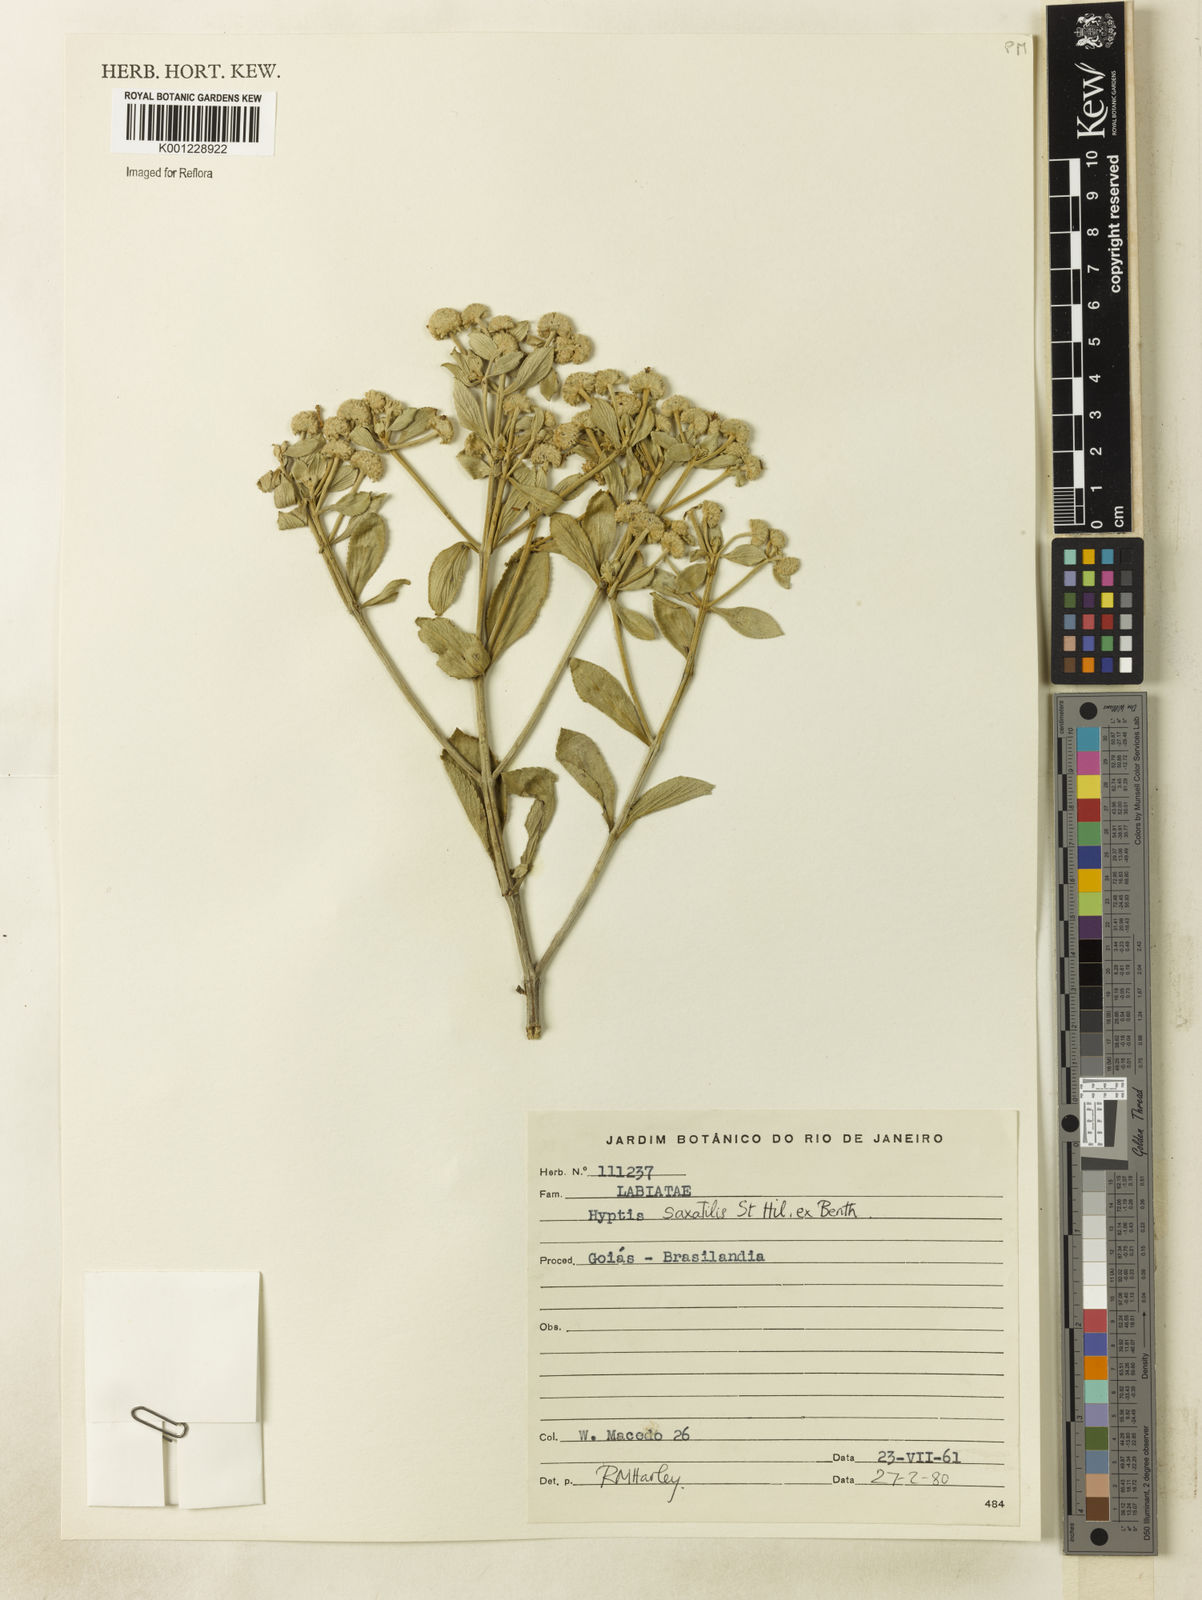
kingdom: Plantae
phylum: Tracheophyta
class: Magnoliopsida
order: Lamiales
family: Lamiaceae
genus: Hyptis
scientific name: Hyptis saxatilis
